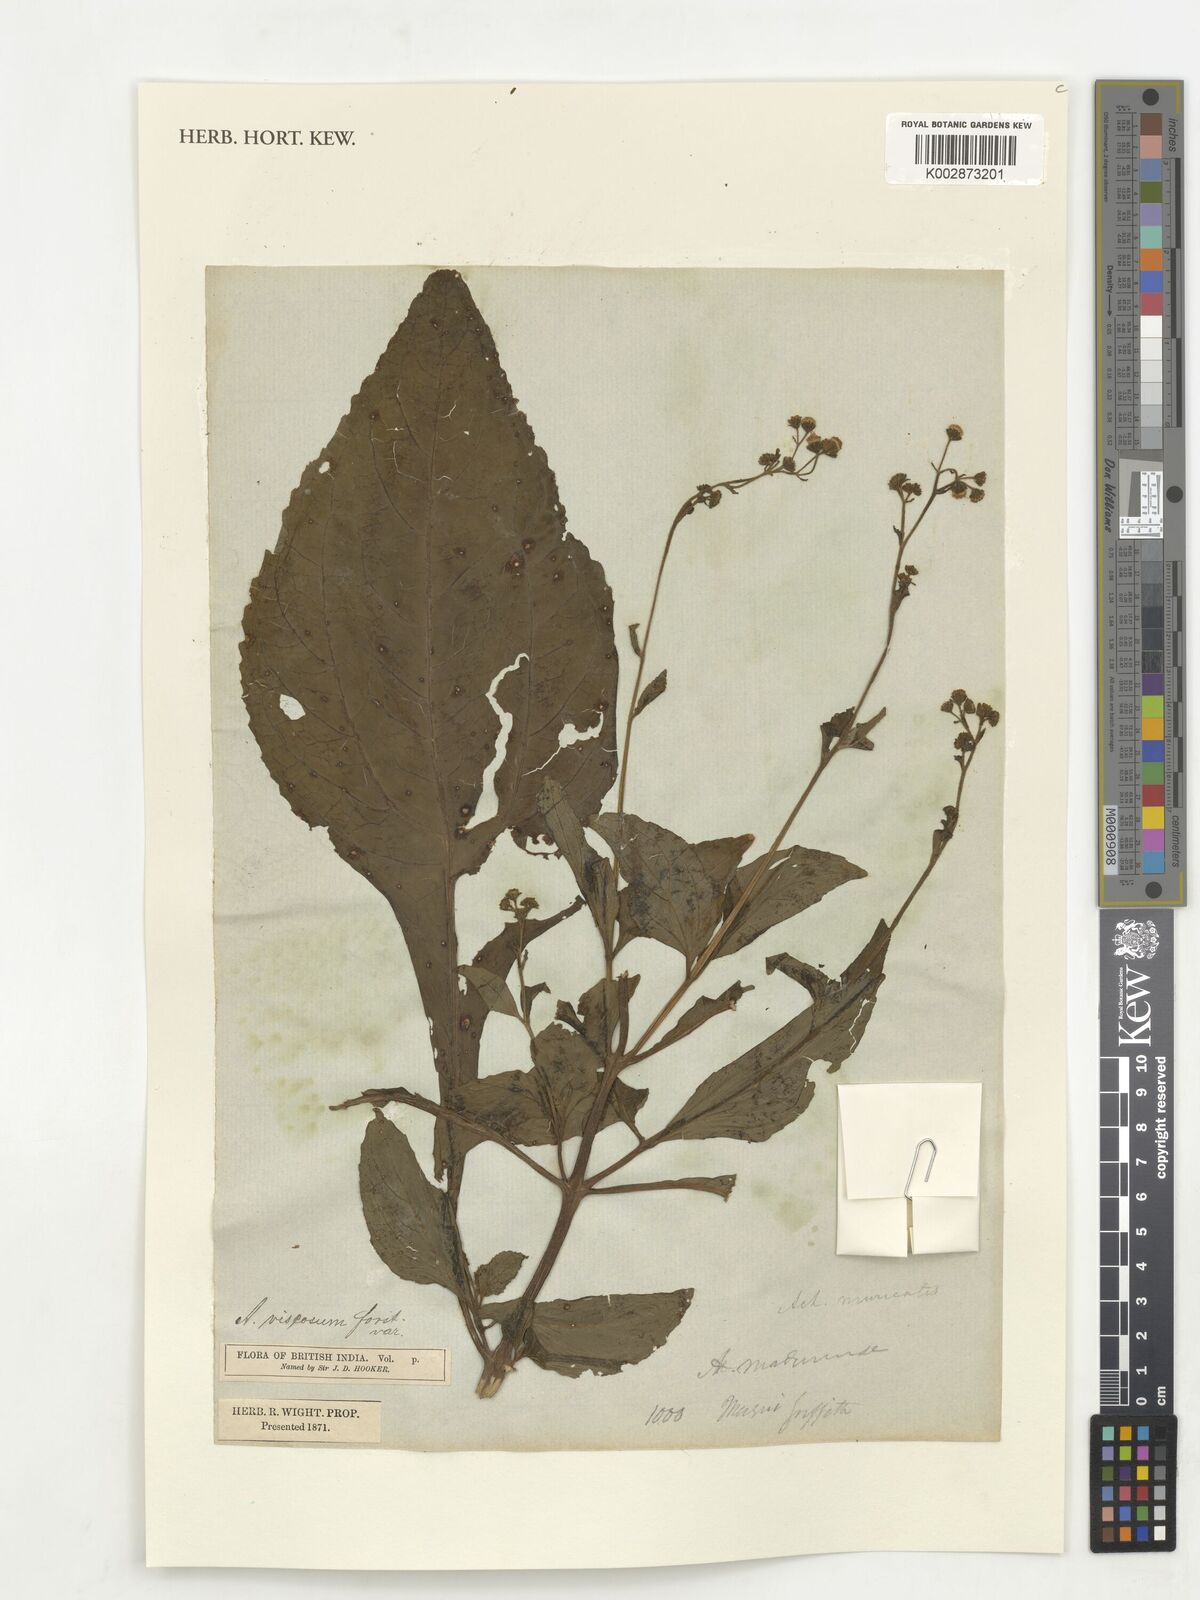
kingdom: Plantae
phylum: Tracheophyta
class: Magnoliopsida
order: Asterales
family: Asteraceae
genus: Adenostemma
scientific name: Adenostemma viscosum
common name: Dungweed
